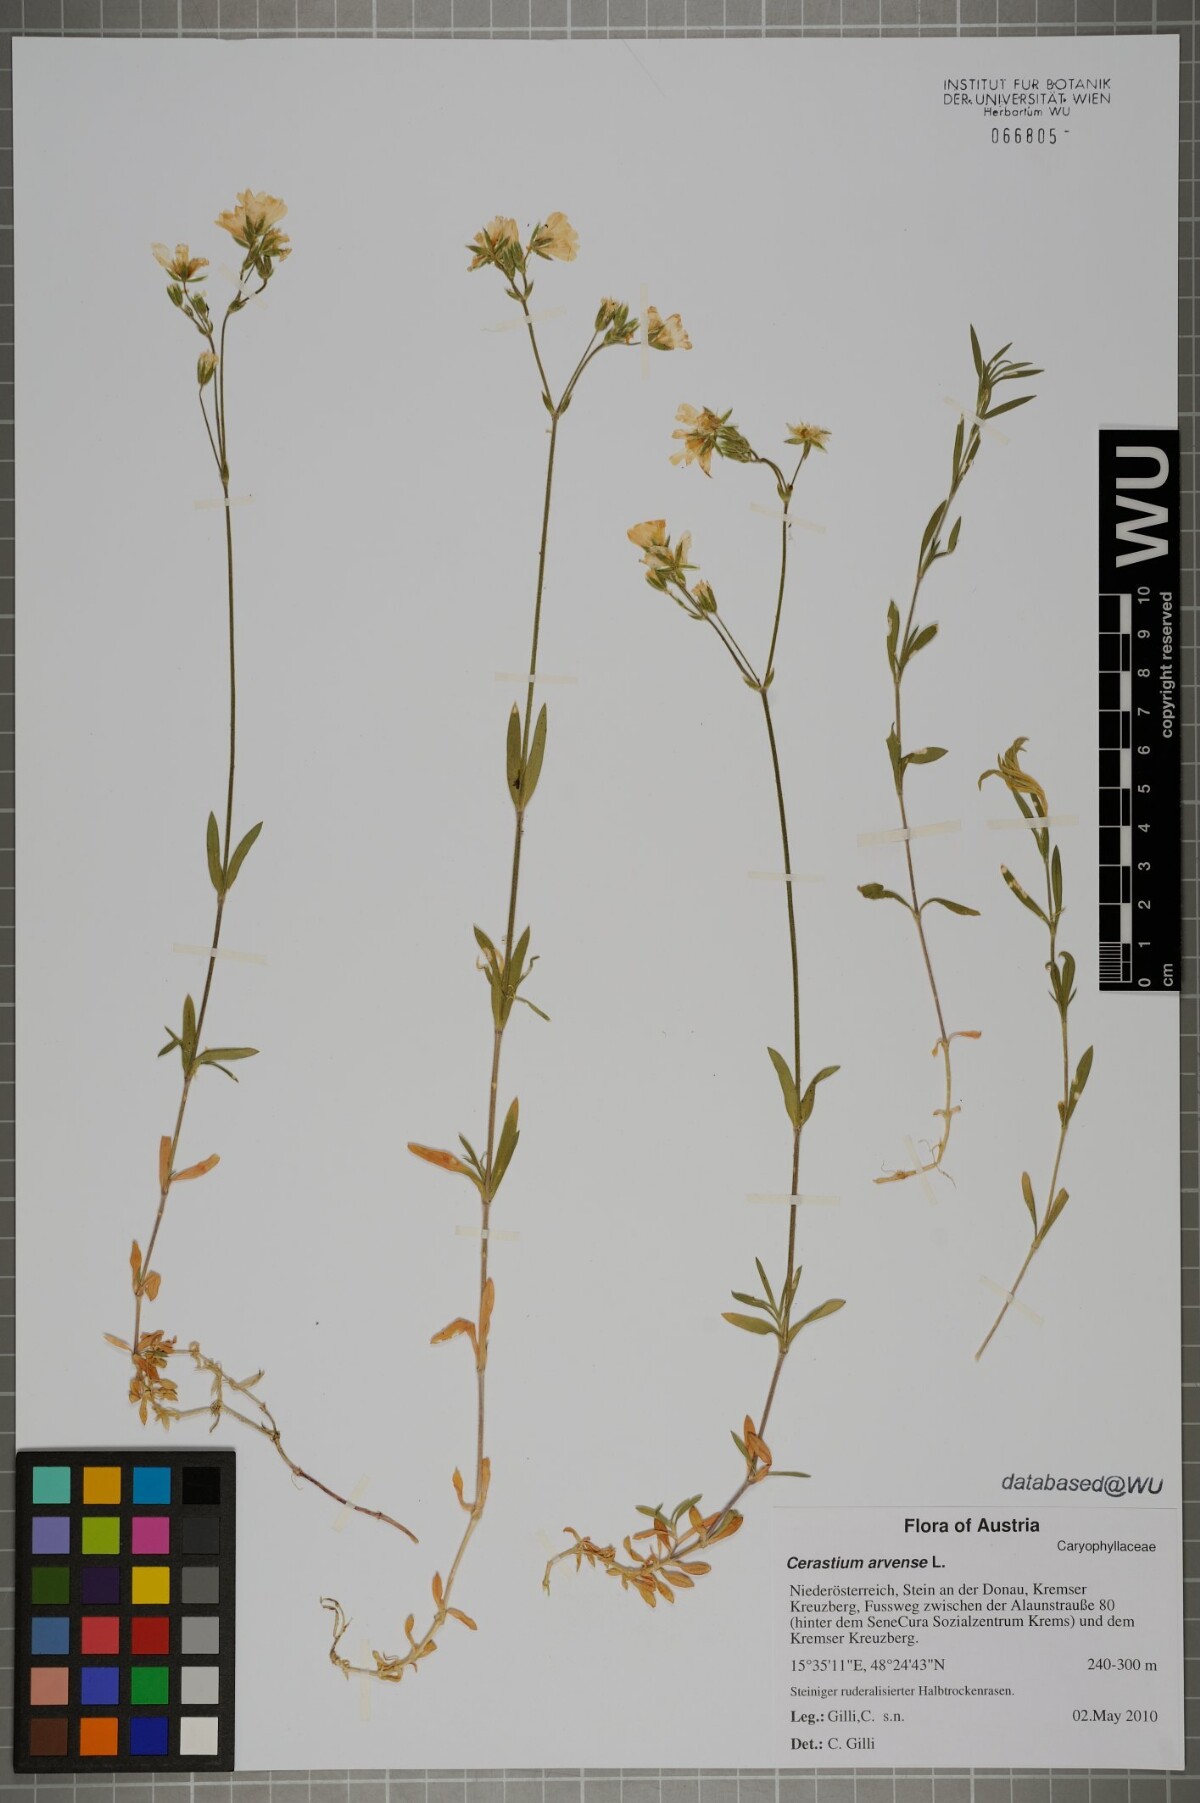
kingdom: Plantae
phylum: Tracheophyta
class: Magnoliopsida
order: Caryophyllales
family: Caryophyllaceae
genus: Cerastium
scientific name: Cerastium arvense
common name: Field mouse-ear
